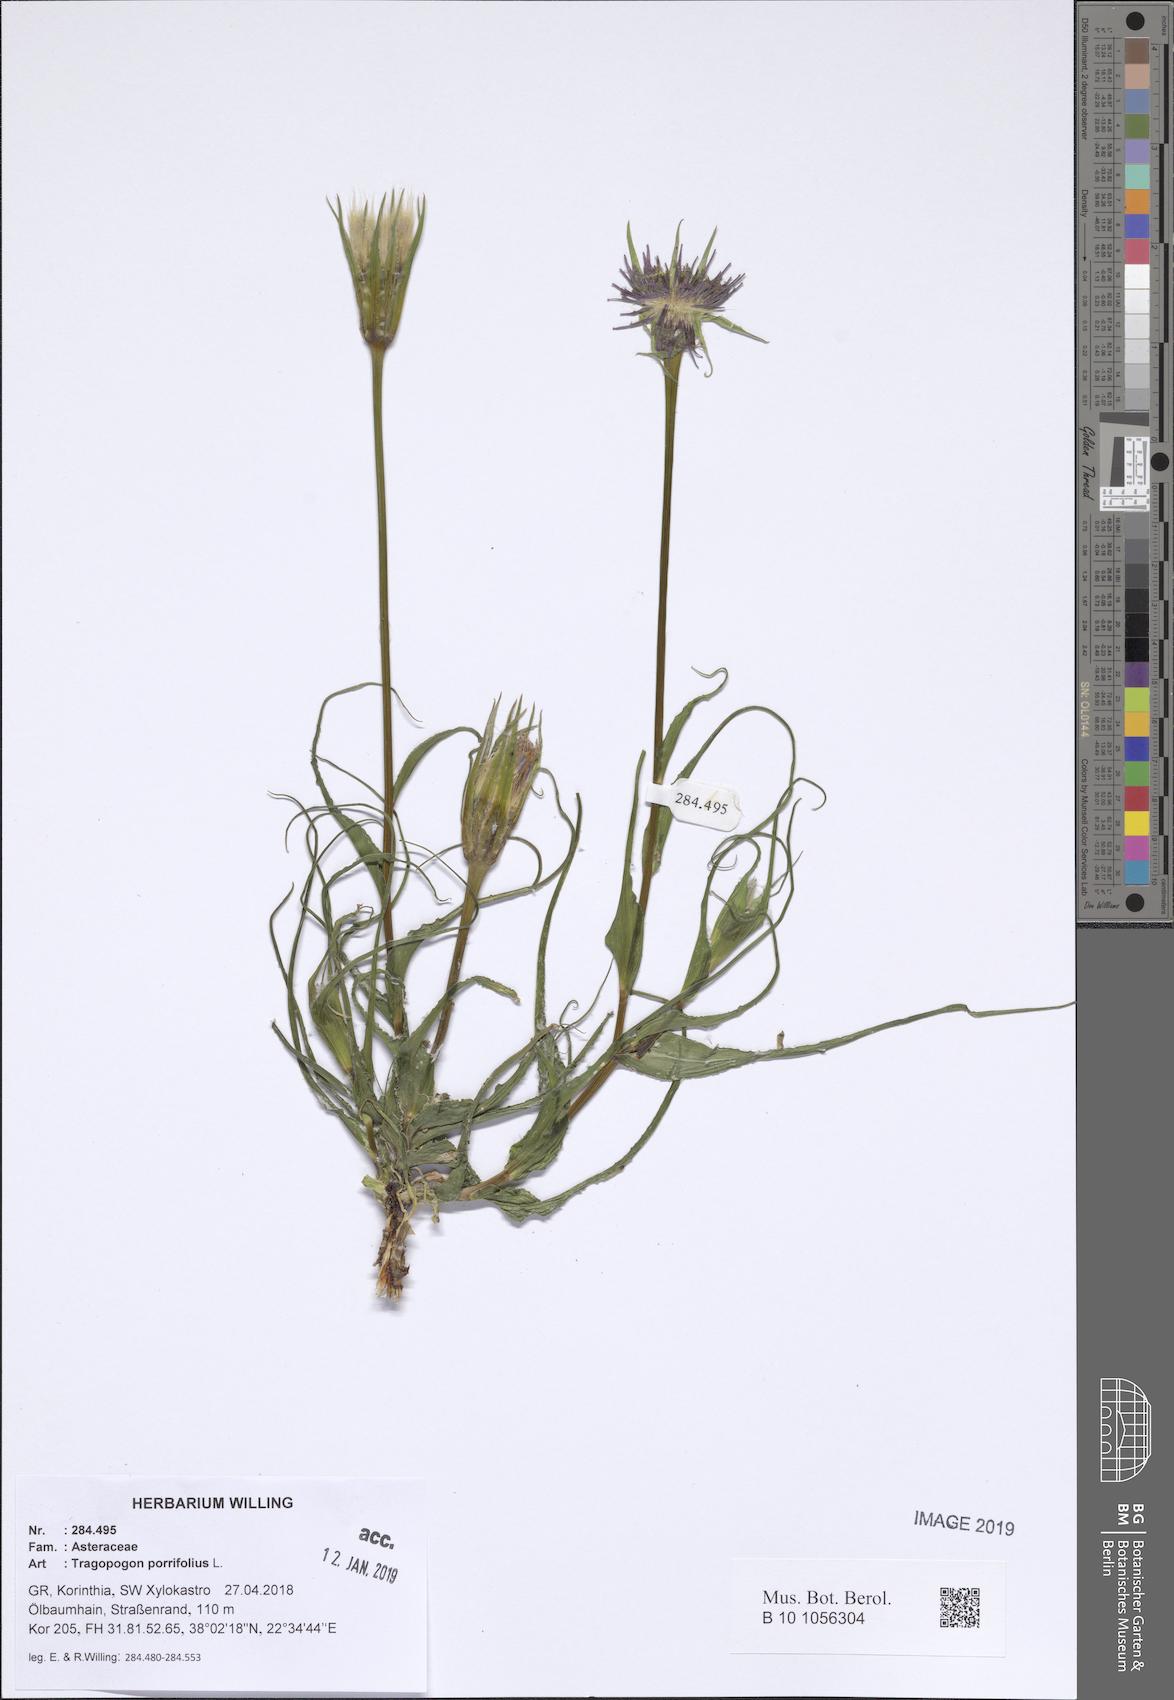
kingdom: Plantae
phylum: Tracheophyta
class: Magnoliopsida
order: Asterales
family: Asteraceae
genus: Tragopogon
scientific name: Tragopogon porrifolius
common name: Salsify
